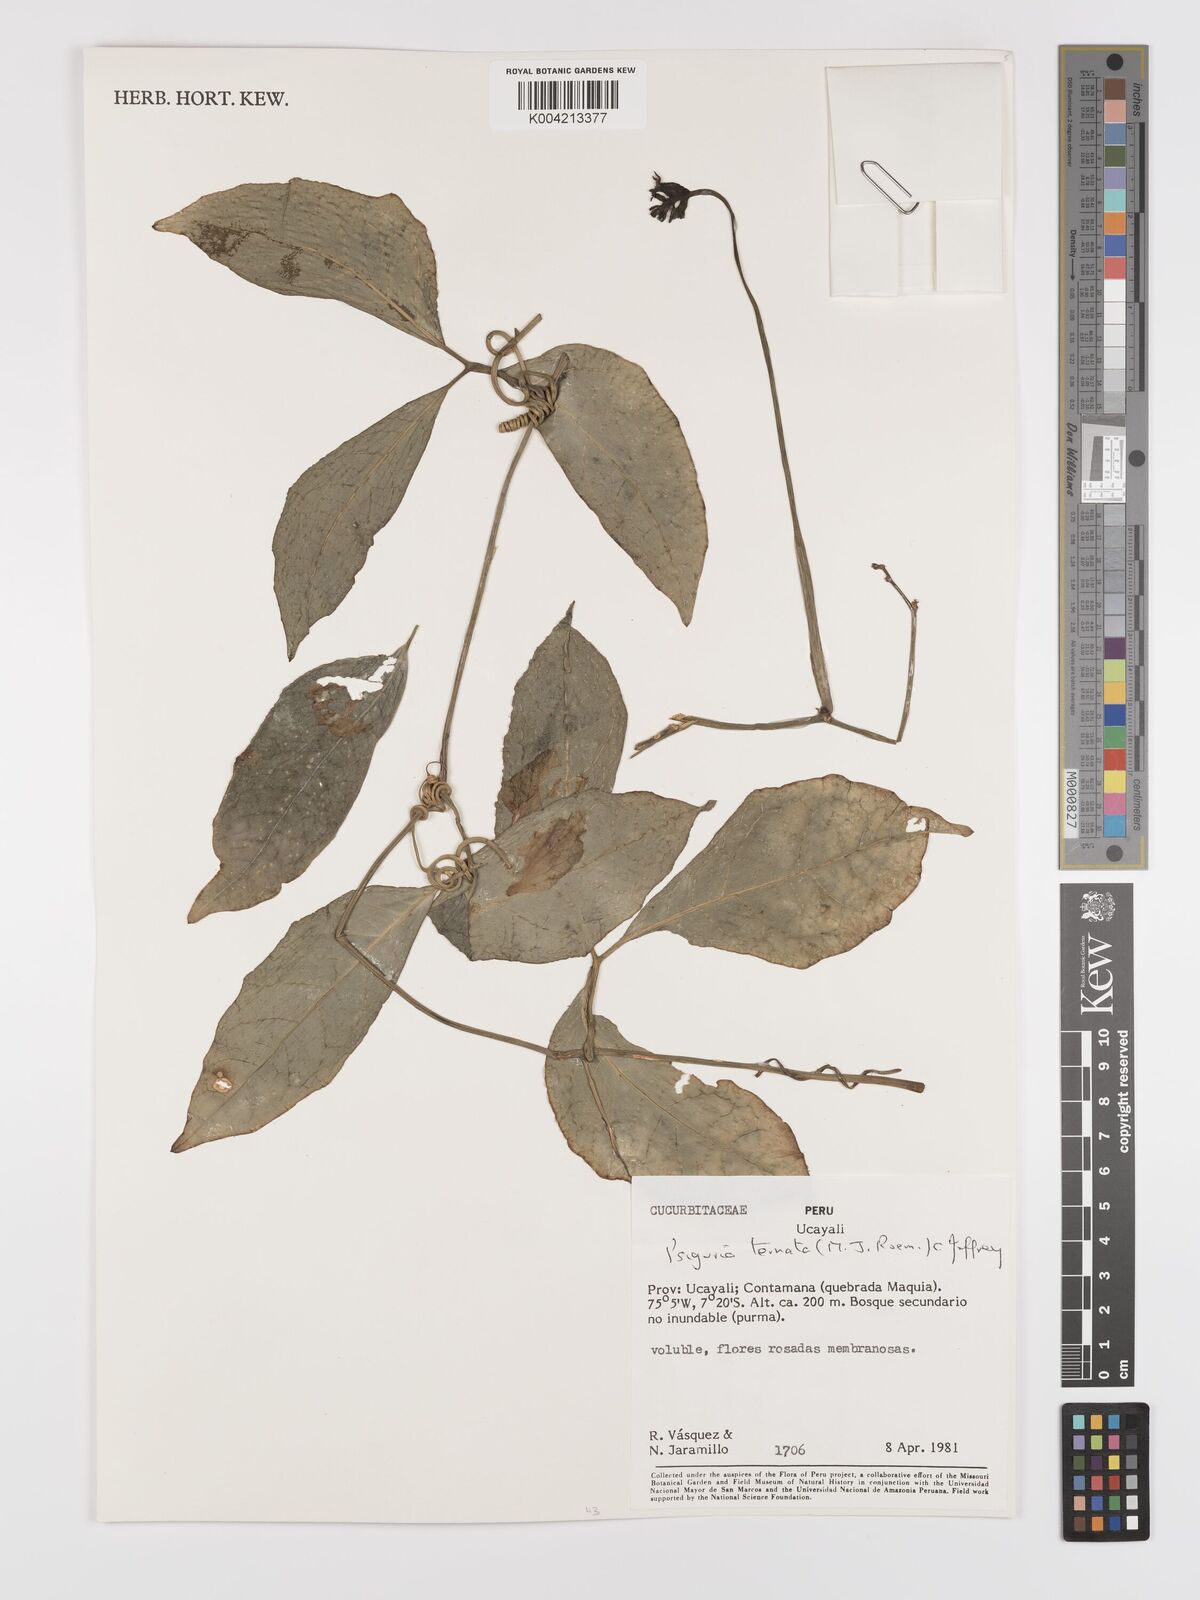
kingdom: Plantae
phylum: Tracheophyta
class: Magnoliopsida
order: Cucurbitales
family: Cucurbitaceae
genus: Psiguria
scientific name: Psiguria ternata
